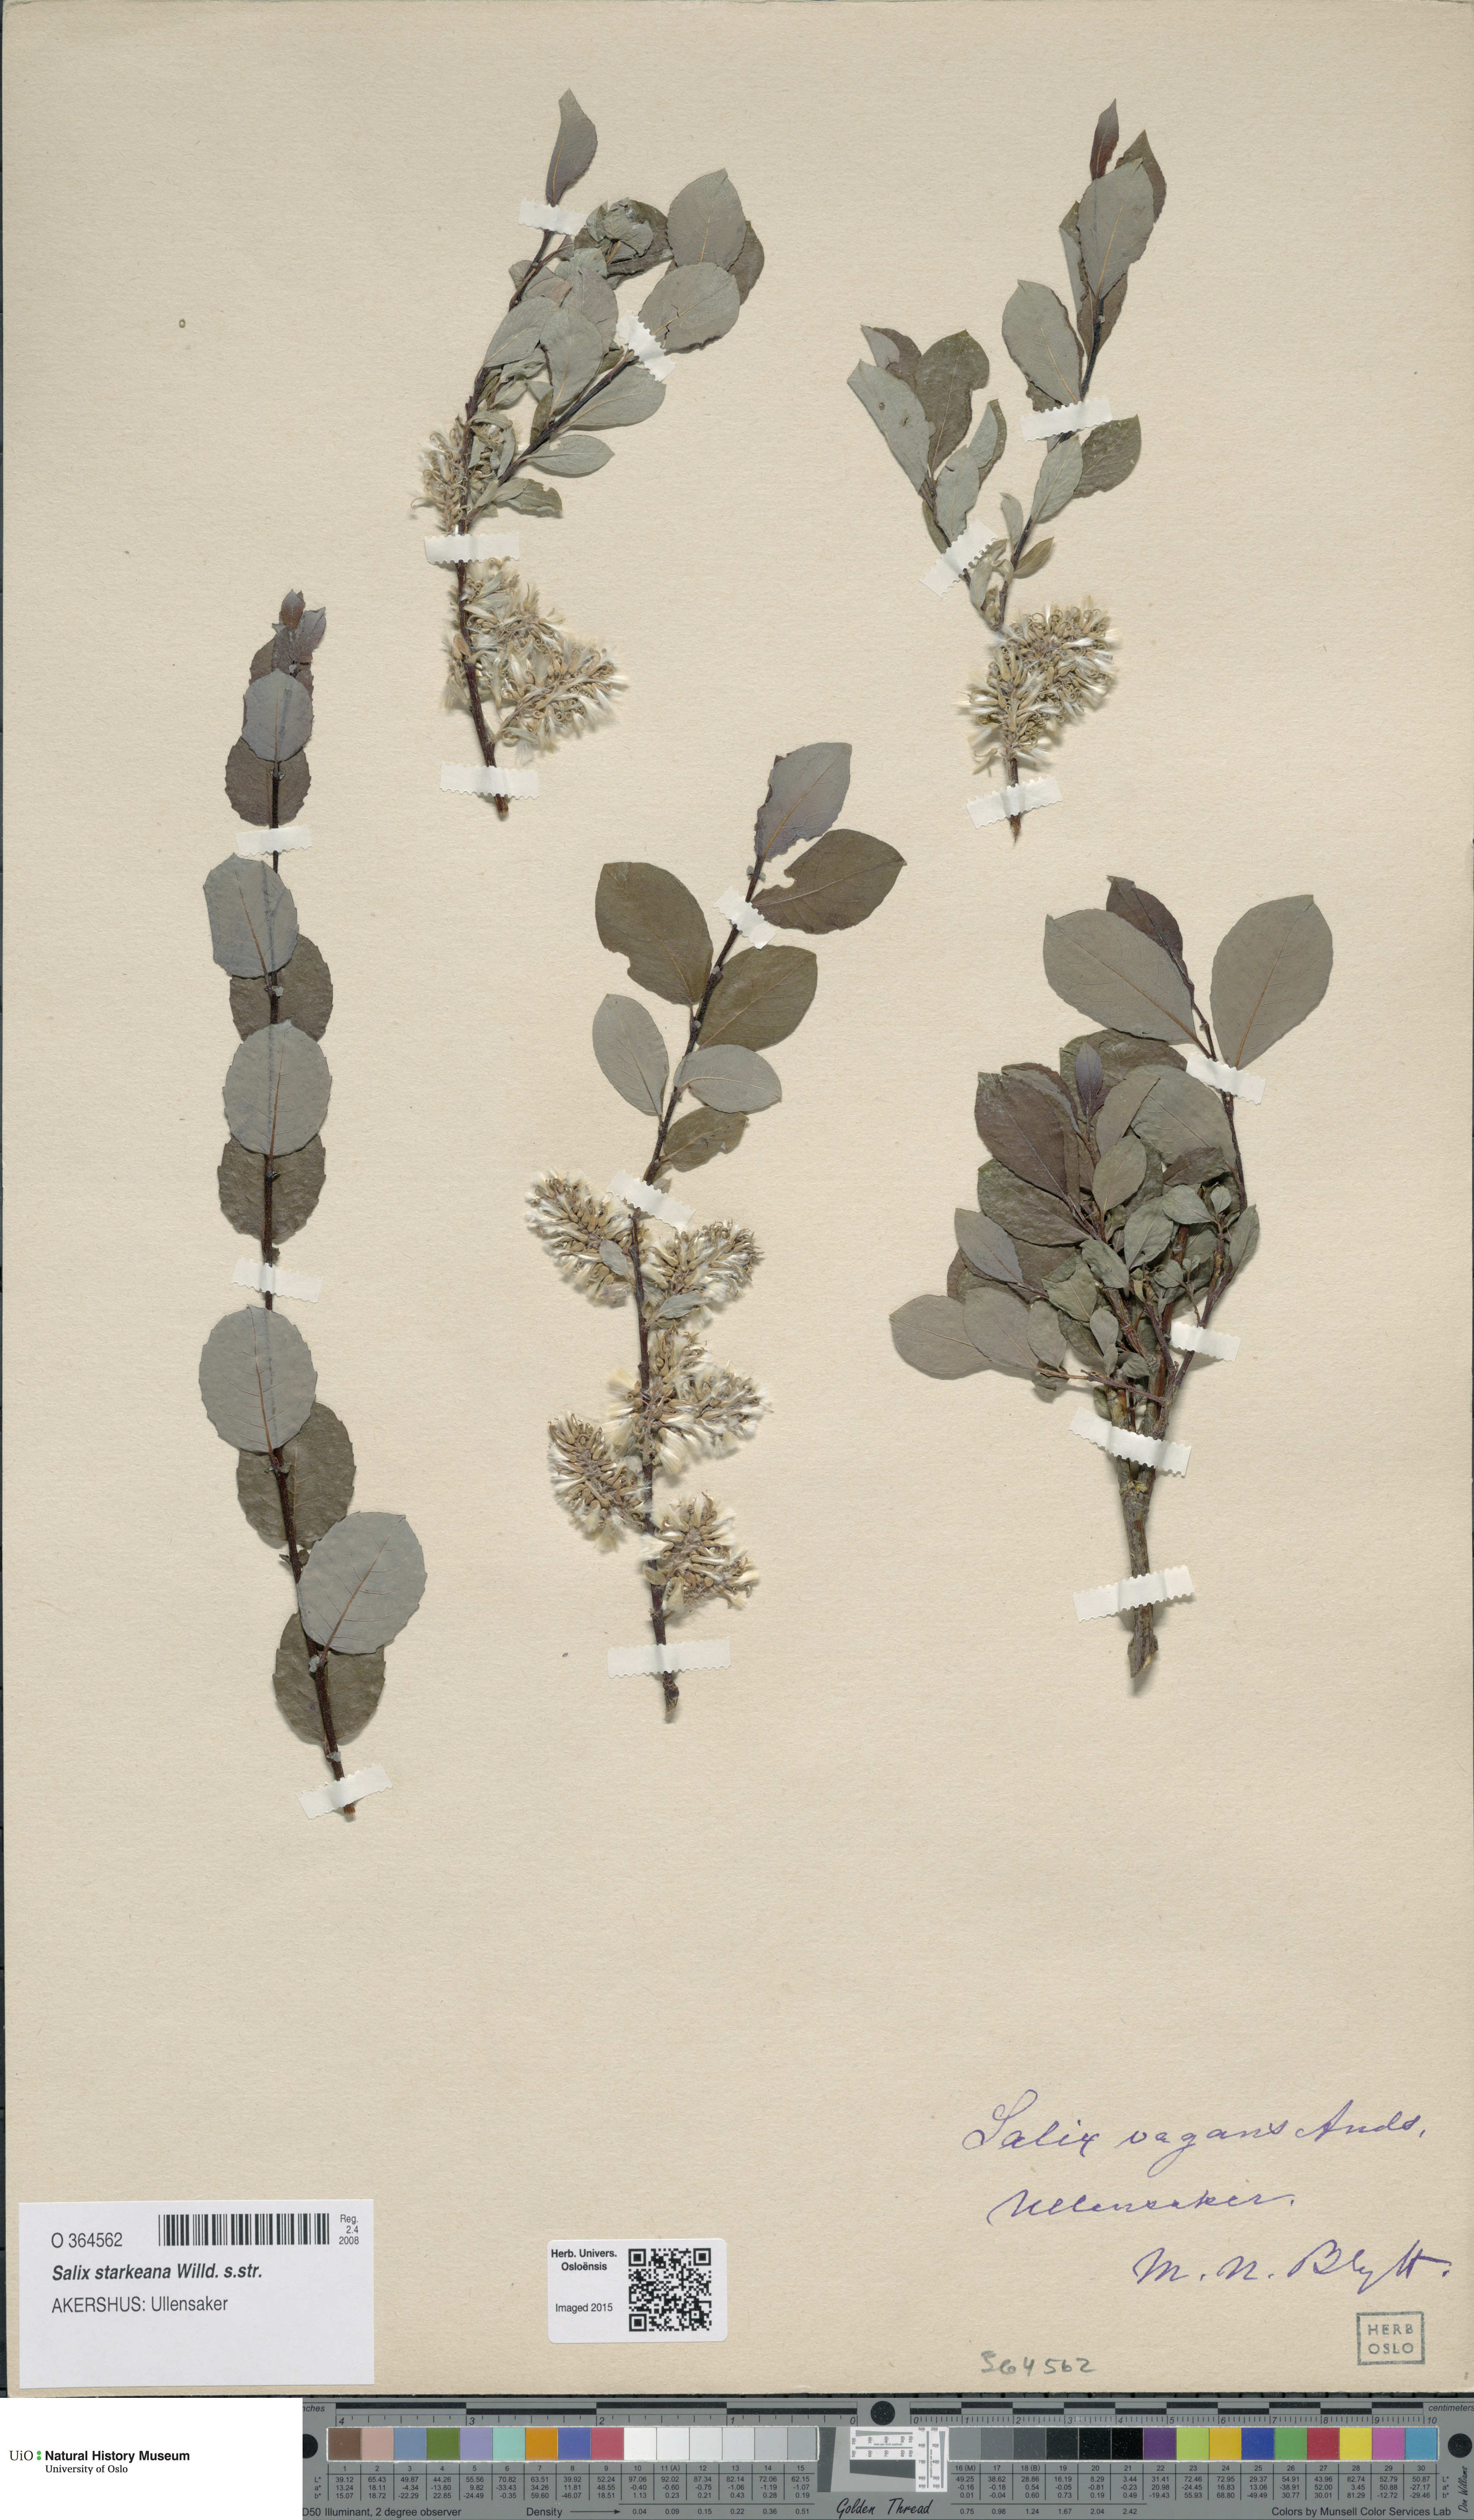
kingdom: Plantae
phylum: Tracheophyta
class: Magnoliopsida
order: Malpighiales
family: Salicaceae
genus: Salix
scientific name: Salix starkeana
